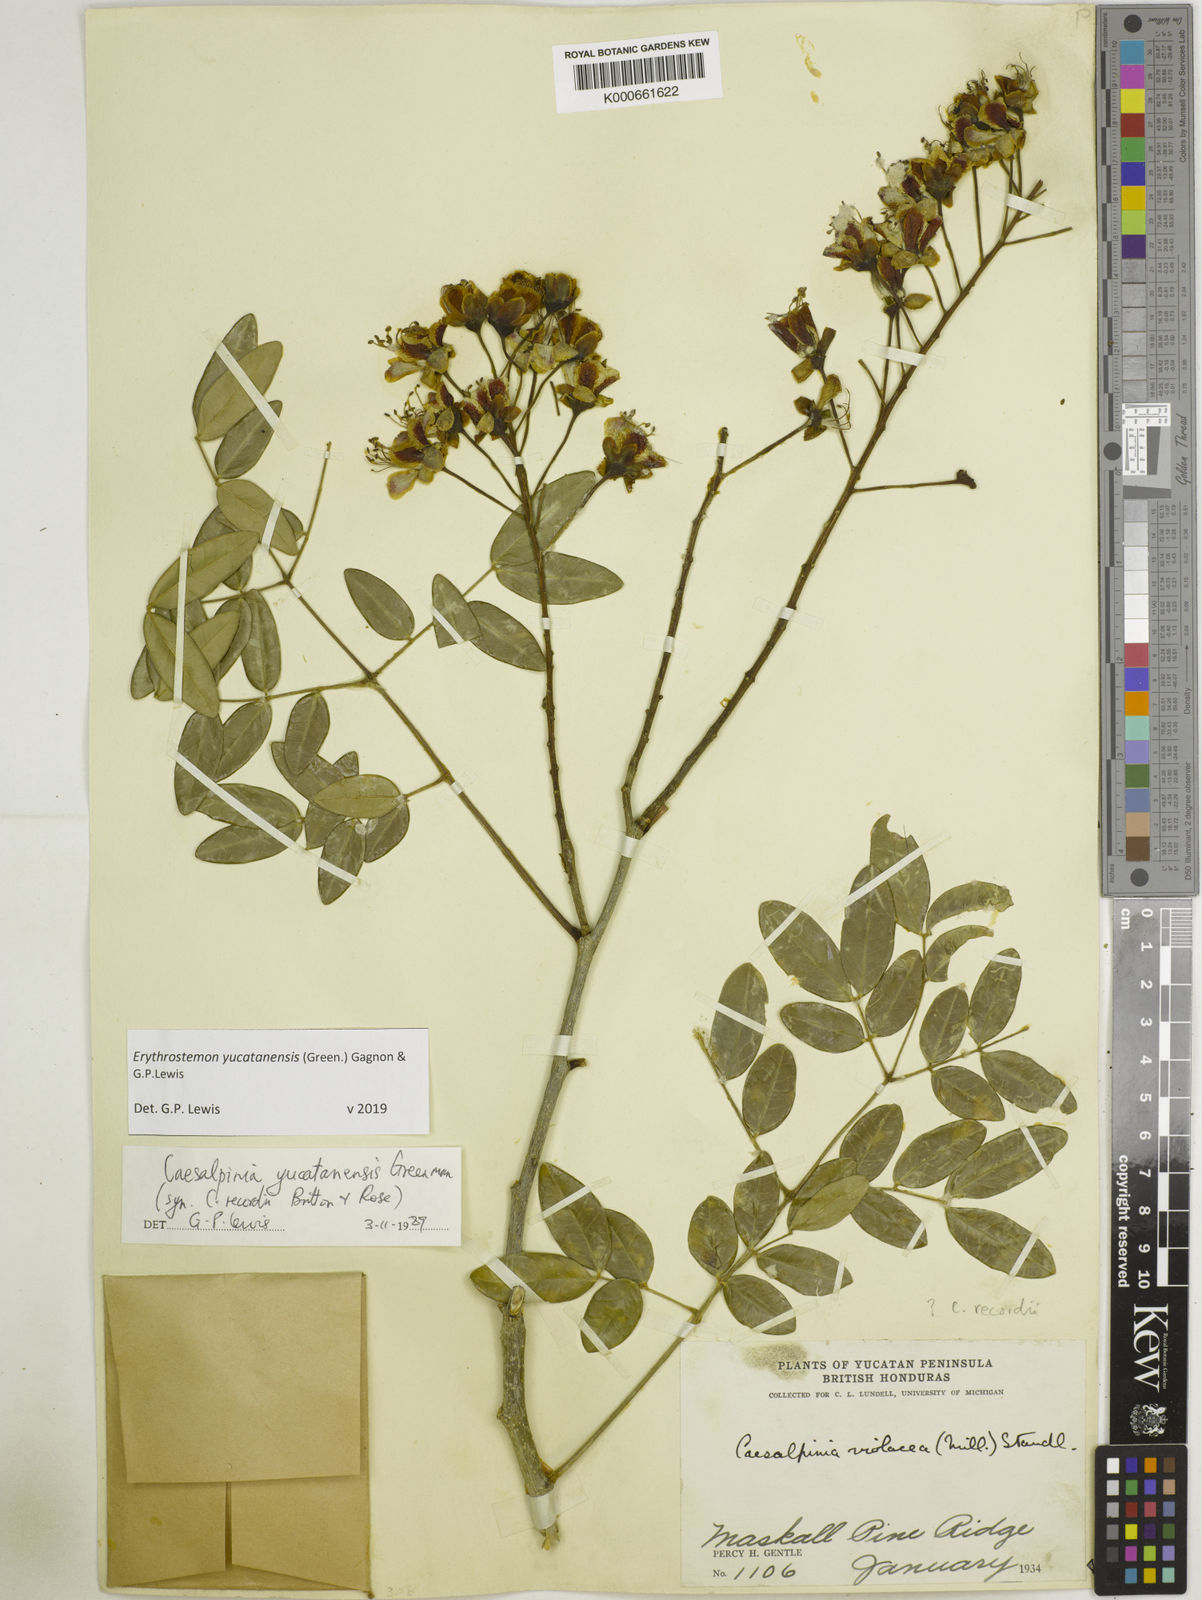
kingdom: Plantae
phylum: Tracheophyta
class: Magnoliopsida
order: Fabales
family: Fabaceae
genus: Caesalpinia
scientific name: Caesalpinia
